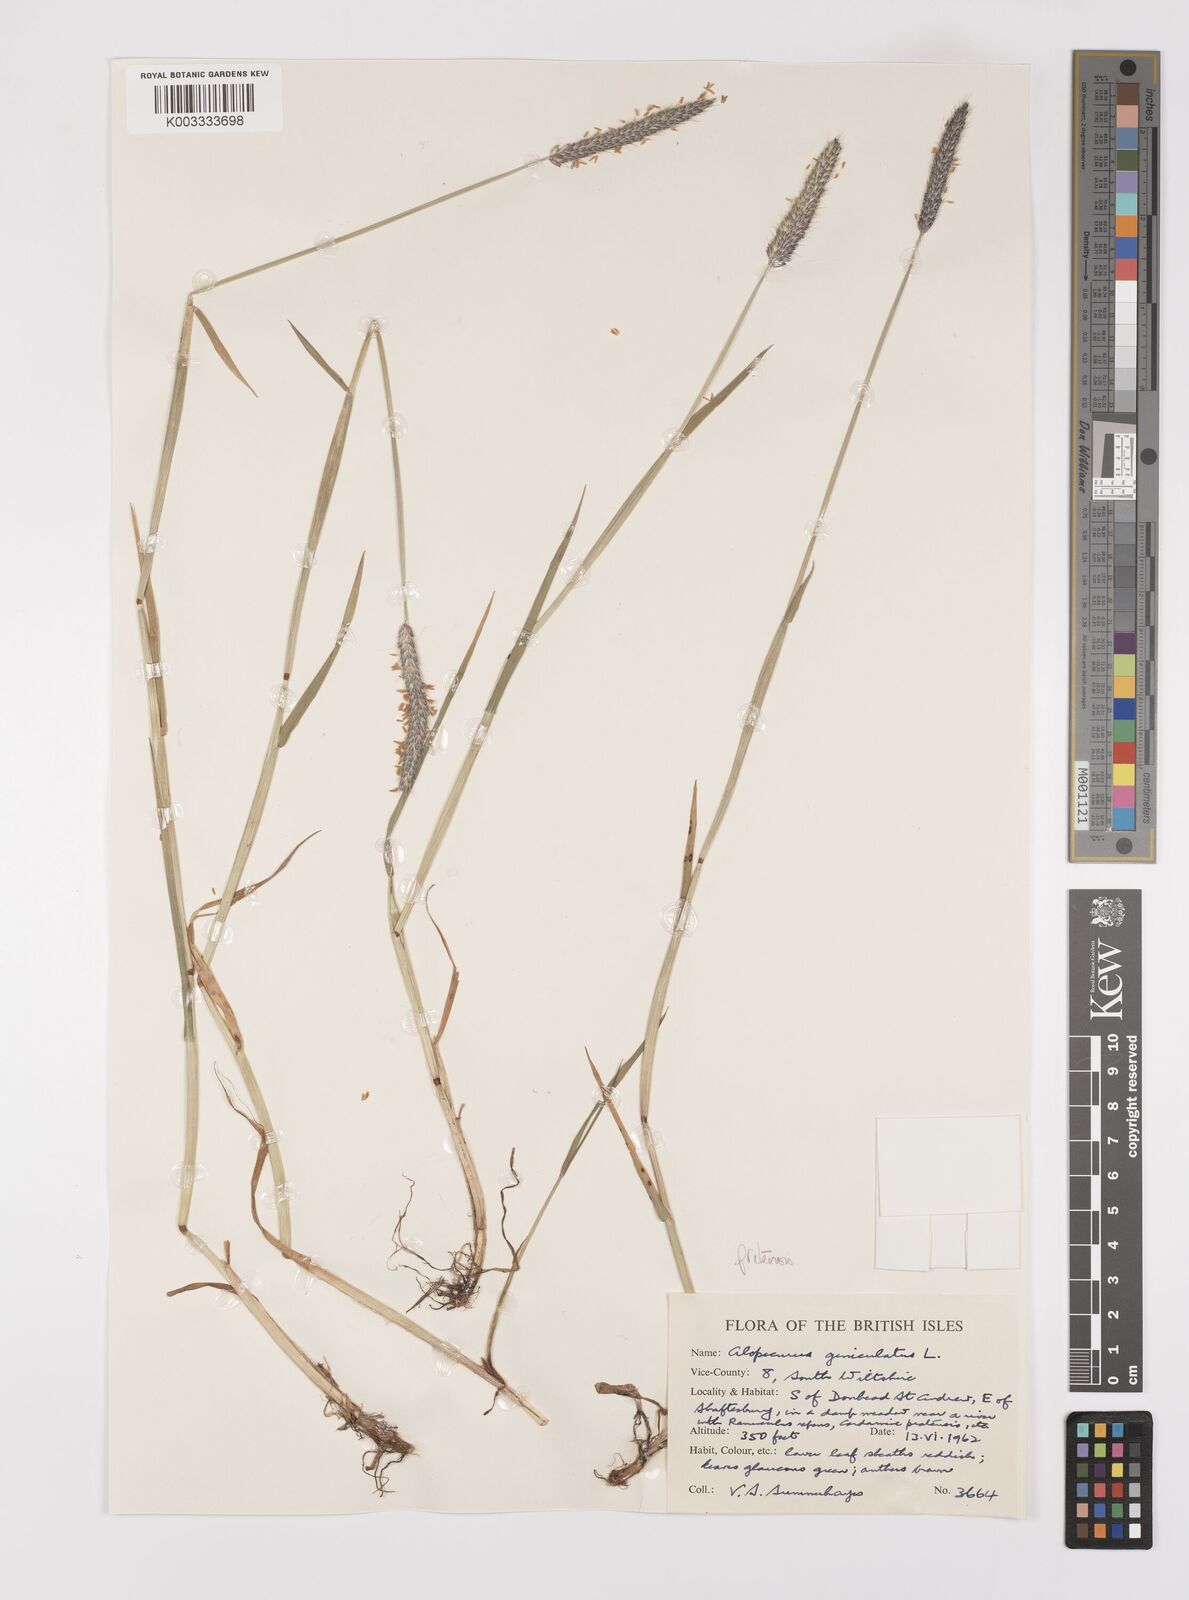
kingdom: Plantae
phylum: Tracheophyta
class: Liliopsida
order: Poales
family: Poaceae
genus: Alopecurus
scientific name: Alopecurus pratensis
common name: Meadow foxtail
